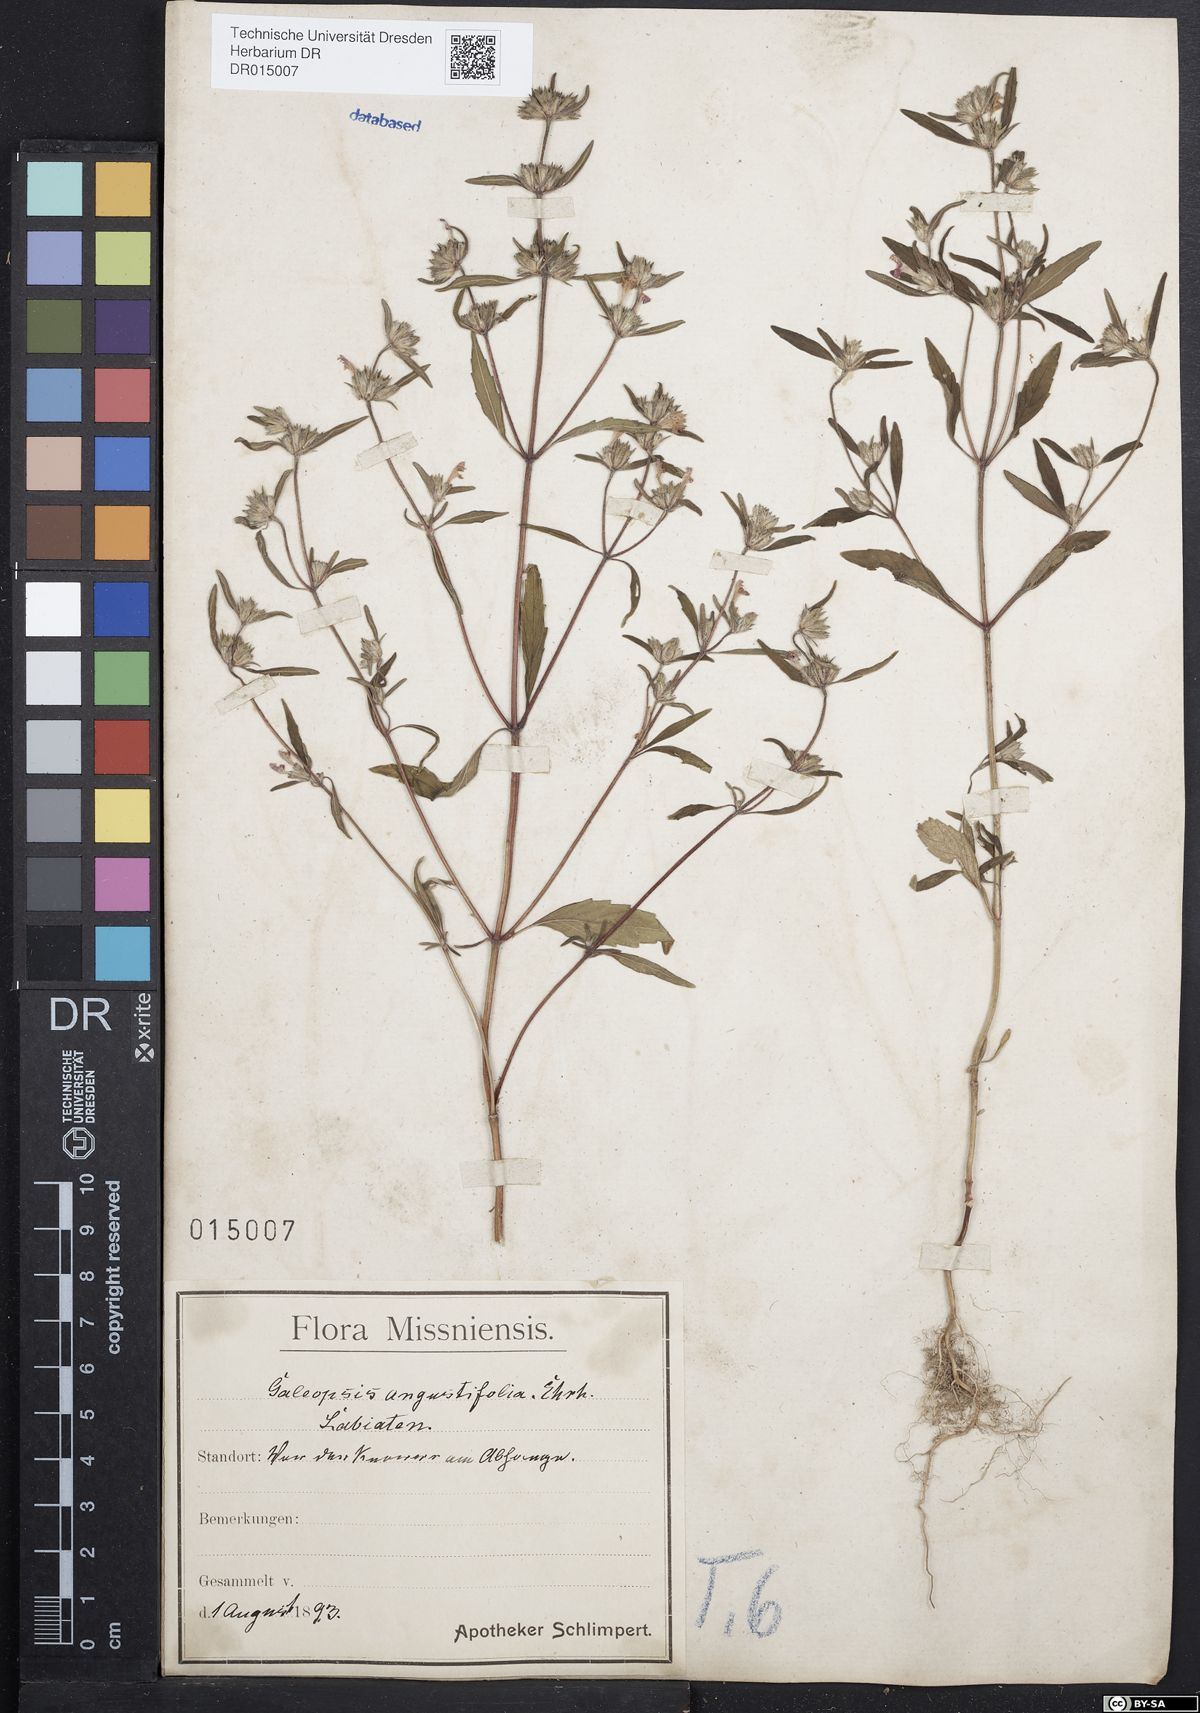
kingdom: Plantae
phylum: Tracheophyta
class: Magnoliopsida
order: Lamiales
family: Lamiaceae
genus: Galeopsis
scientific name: Galeopsis angustifolia
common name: Red hemp-nettle
